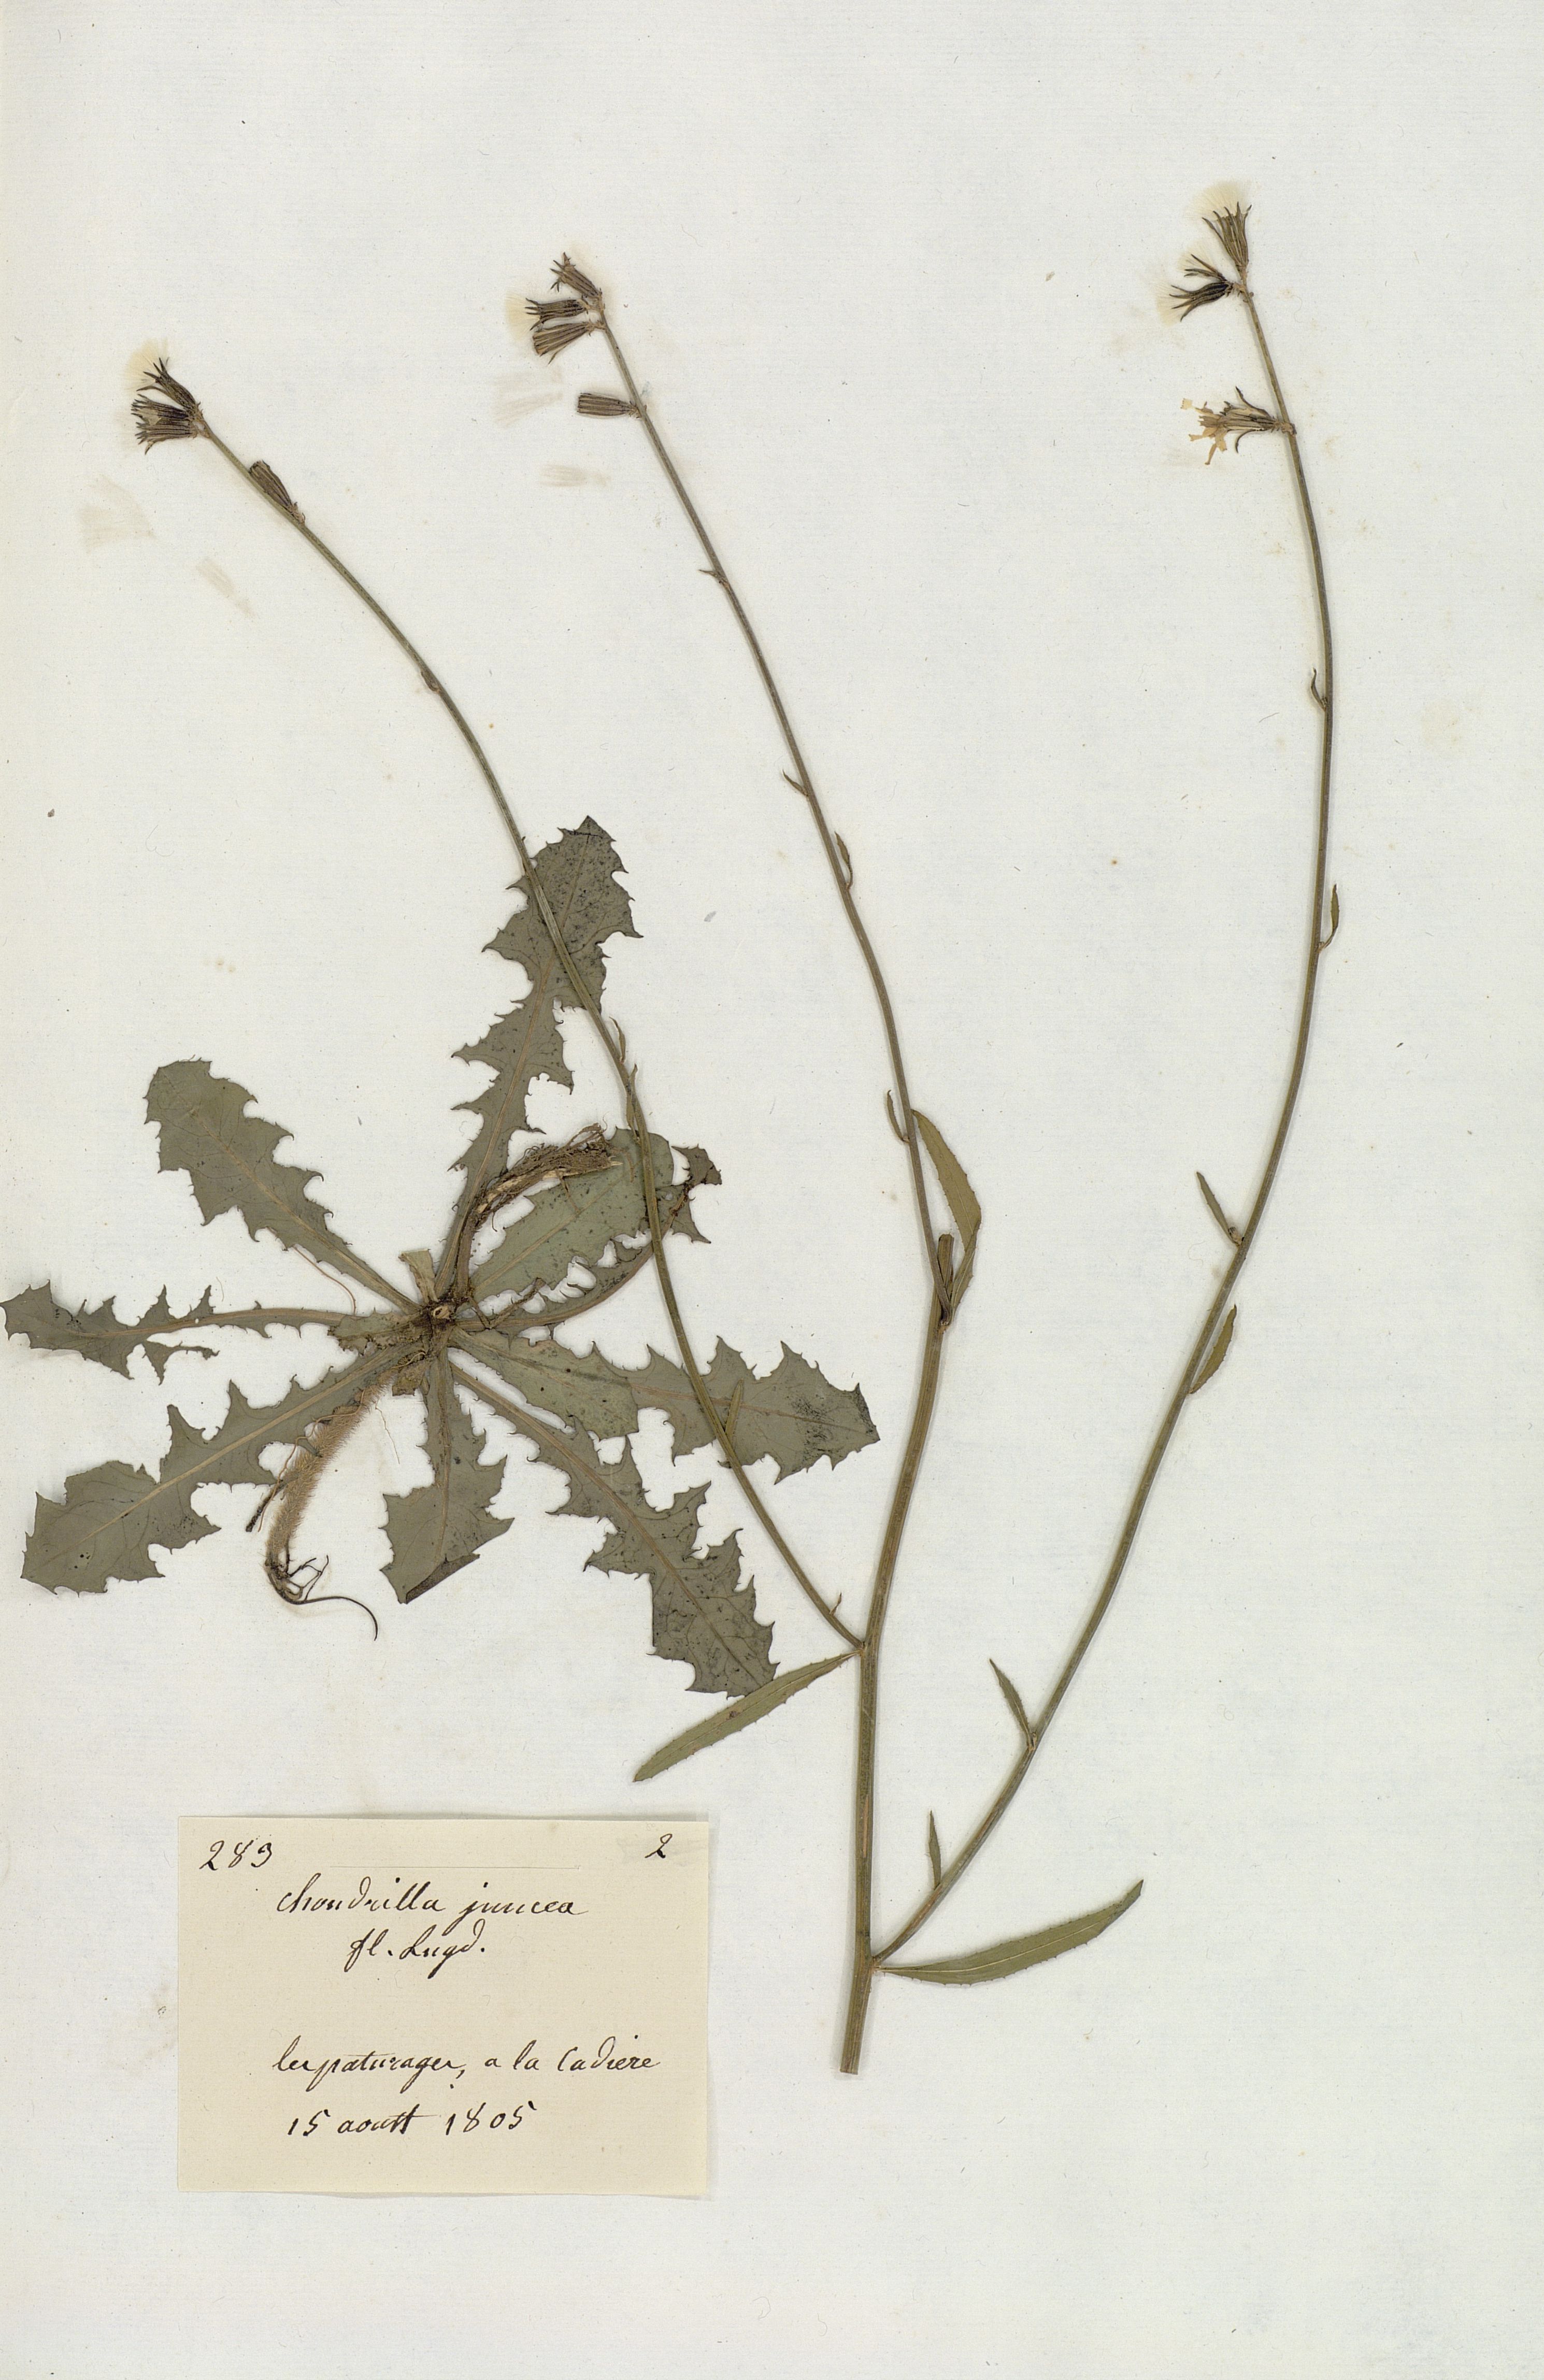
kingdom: Plantae
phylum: Tracheophyta
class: Magnoliopsida
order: Asterales
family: Asteraceae
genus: Chondrilla
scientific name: Chondrilla juncea
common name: Skeleton weed
